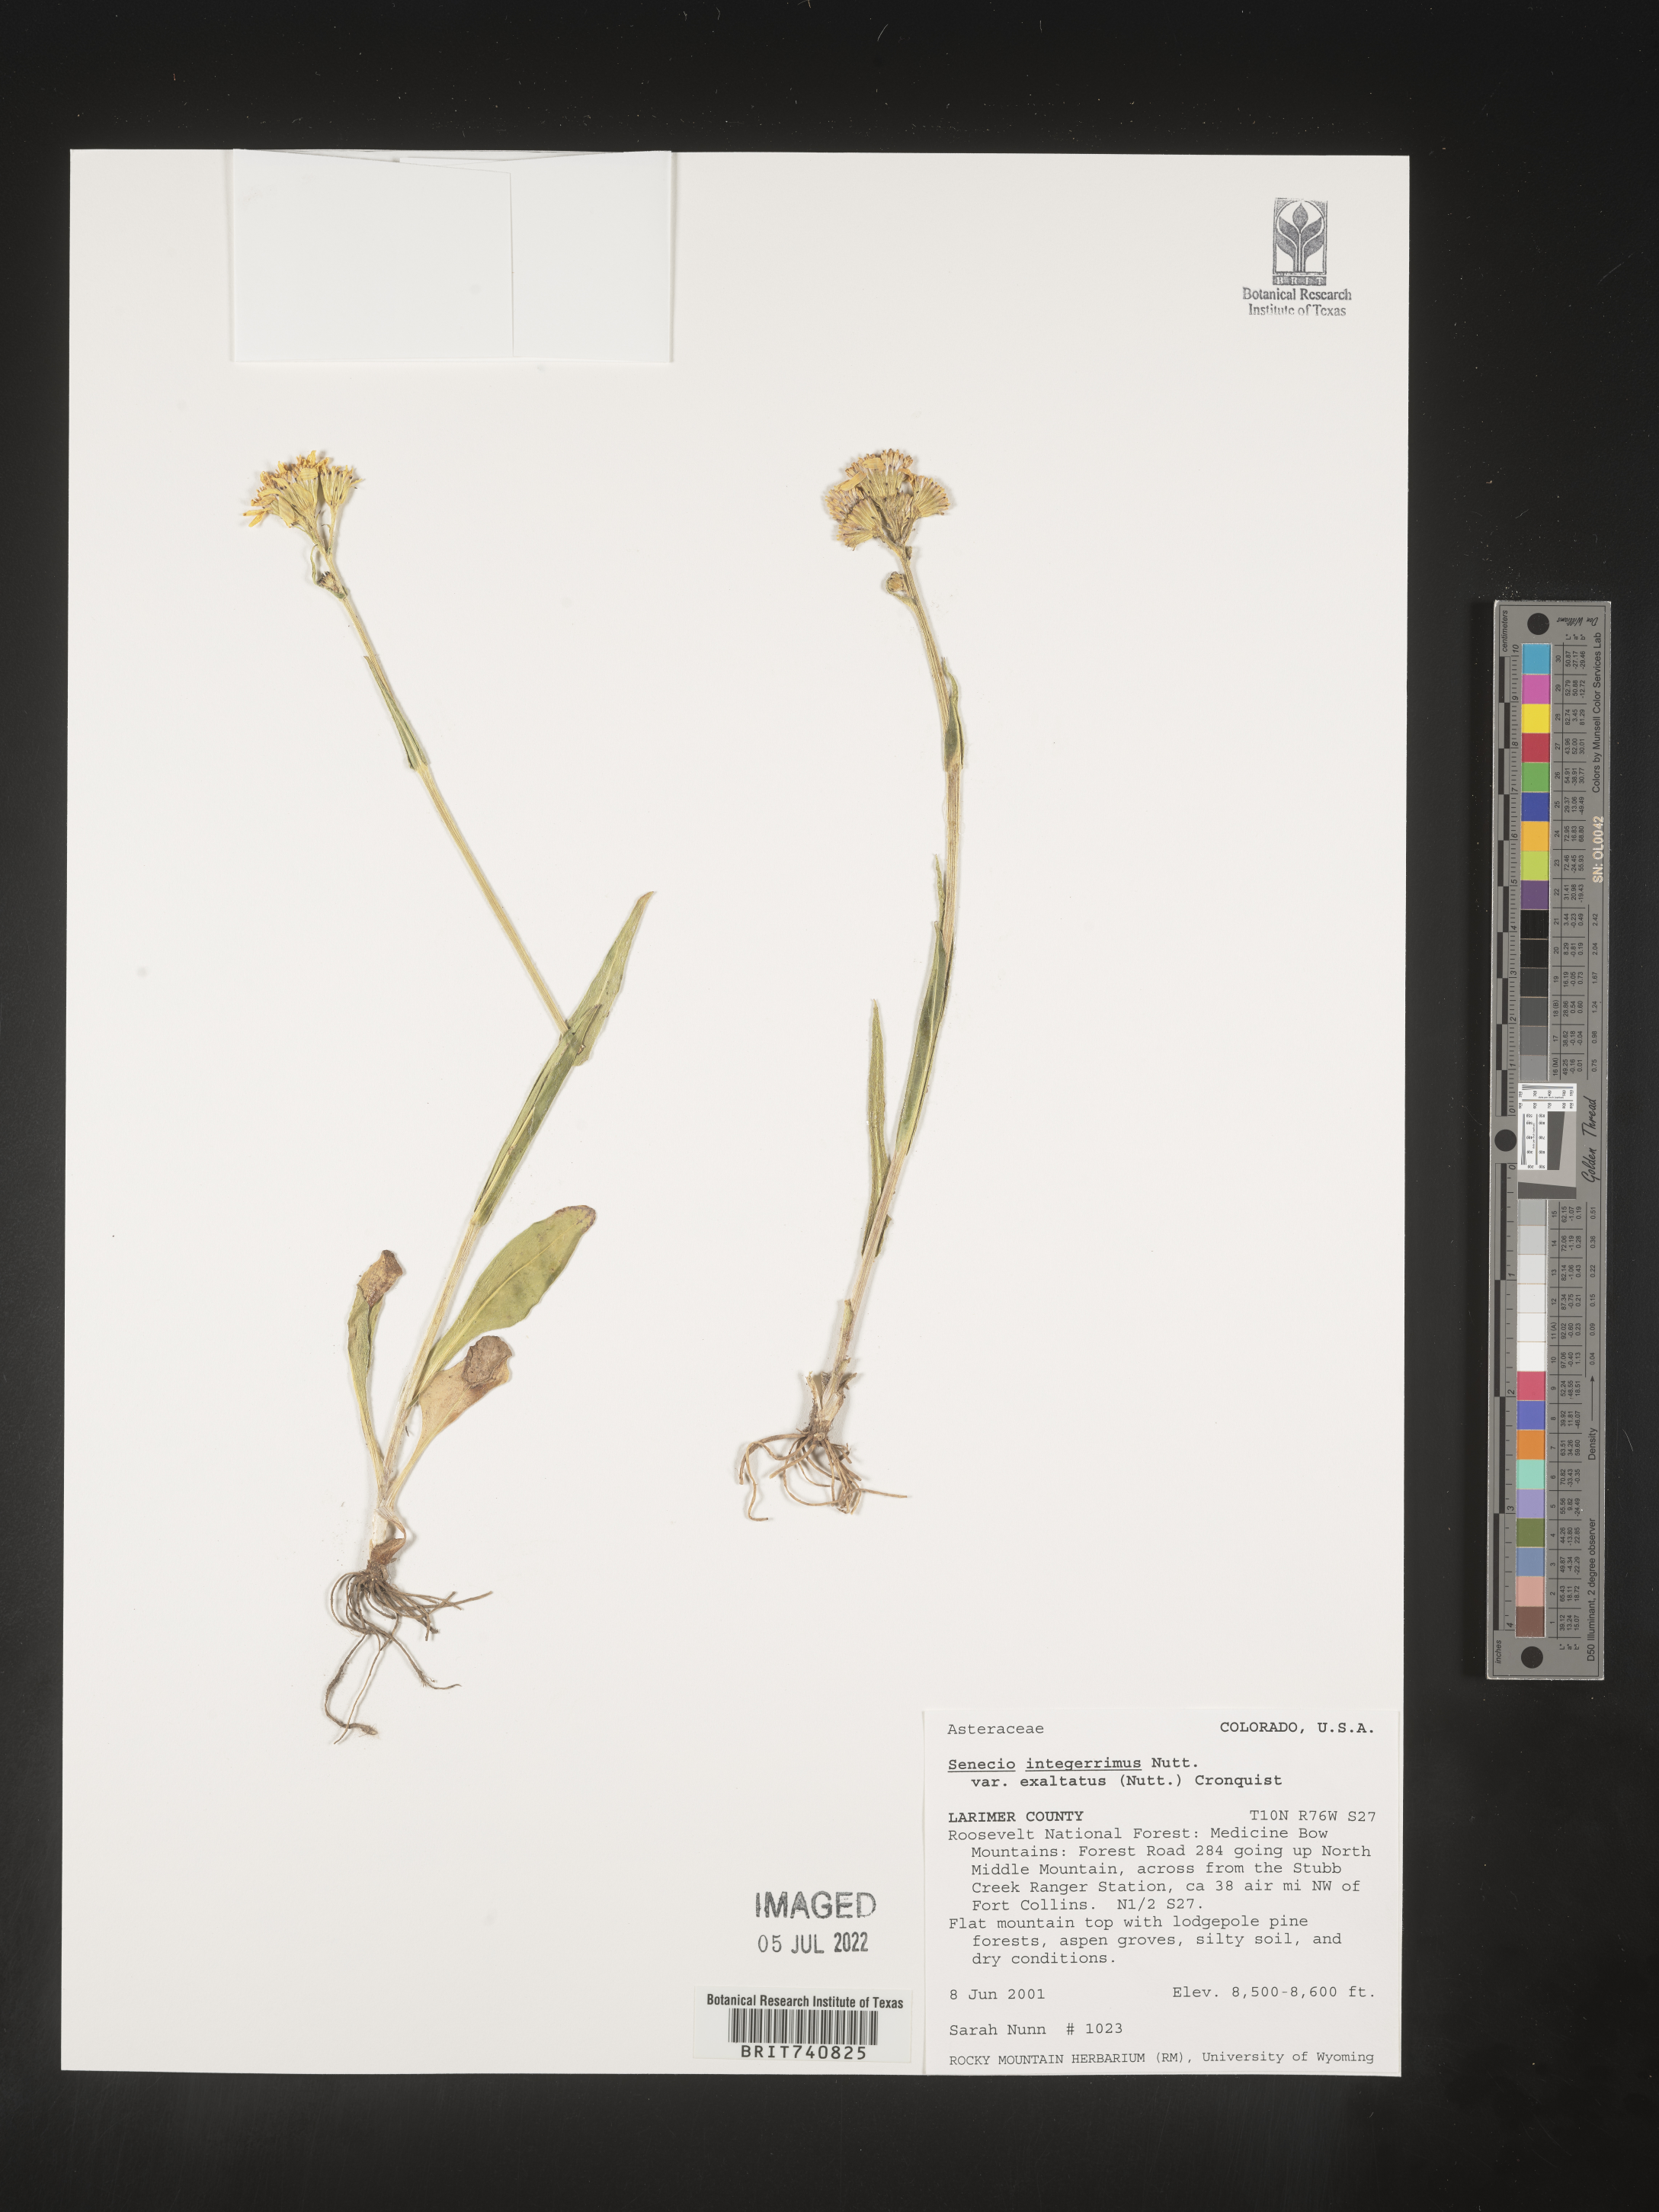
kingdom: Plantae
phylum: Tracheophyta
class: Magnoliopsida
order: Asterales
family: Asteraceae
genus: Senecio
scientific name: Senecio integerrimus
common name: Gaugeplant
